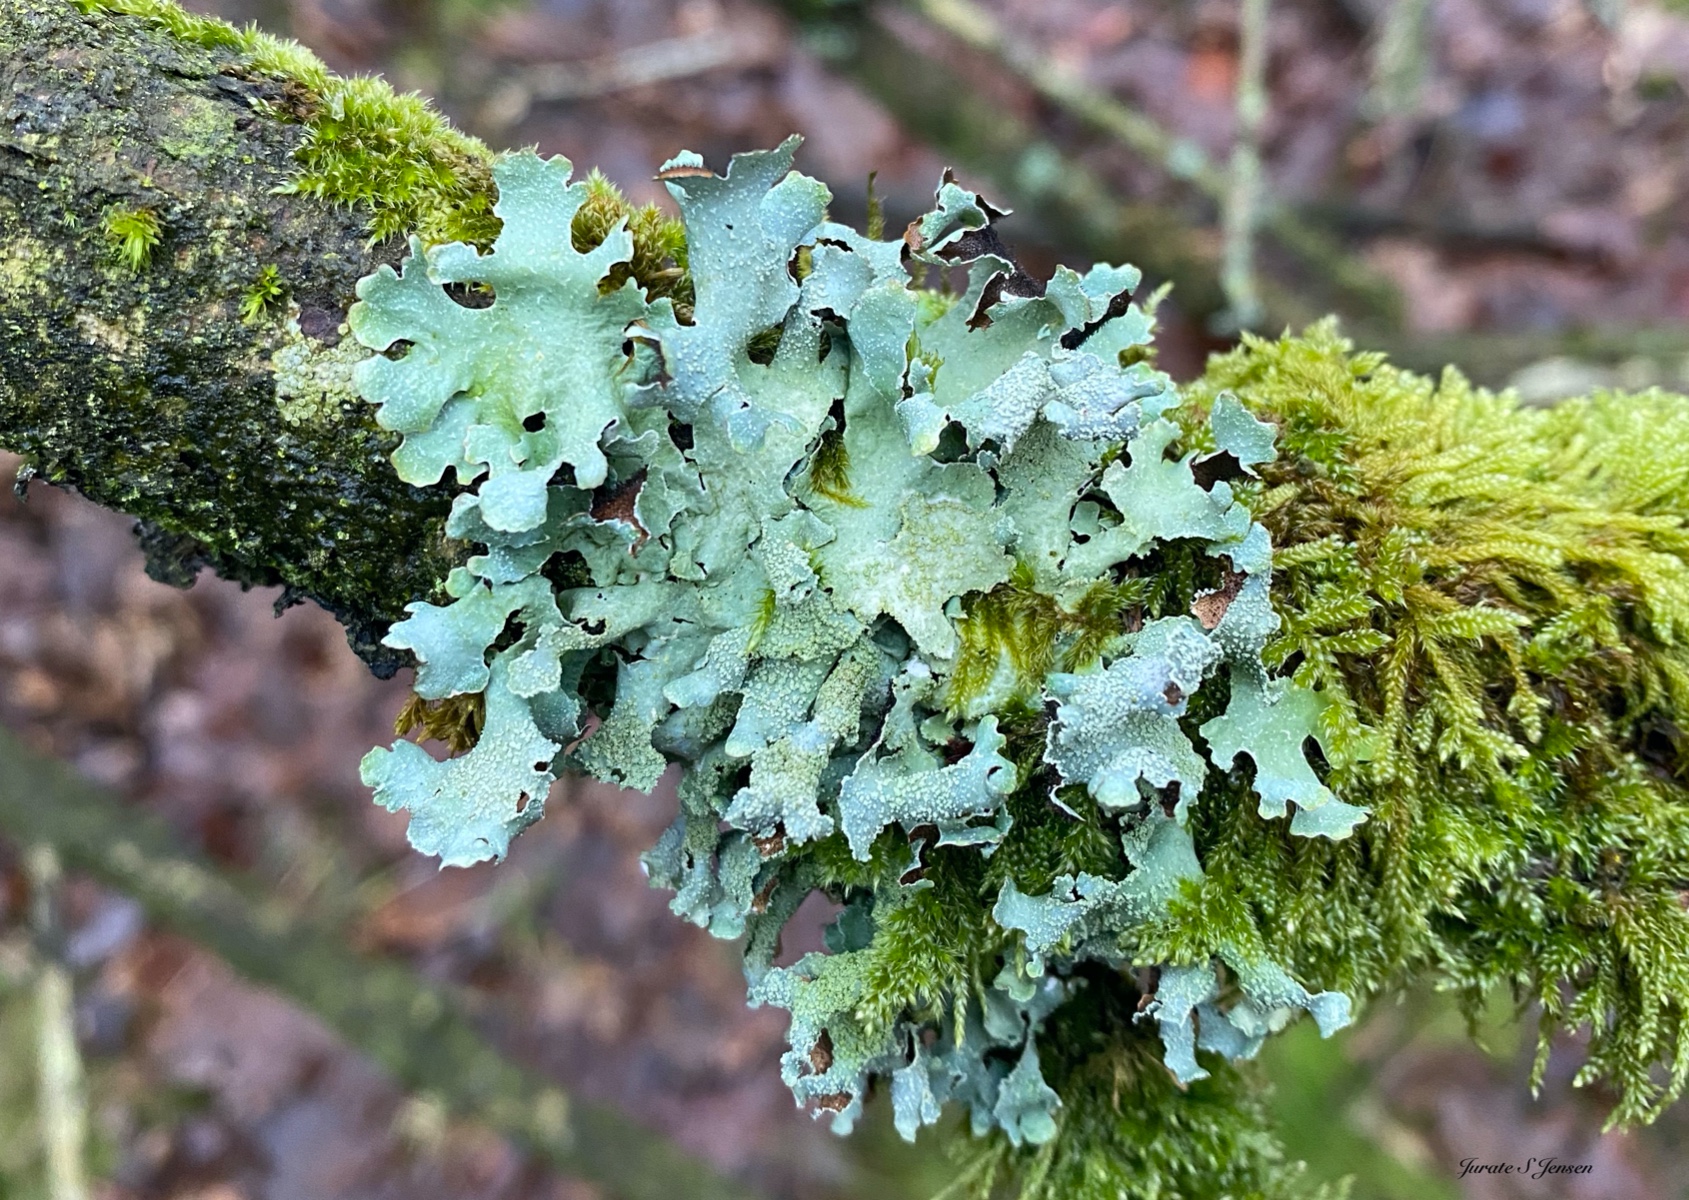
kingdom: Fungi
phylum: Ascomycota
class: Lecanoromycetes
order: Lecanorales
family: Parmeliaceae
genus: Parmelia
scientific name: Parmelia submontana
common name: langlobet skållav
